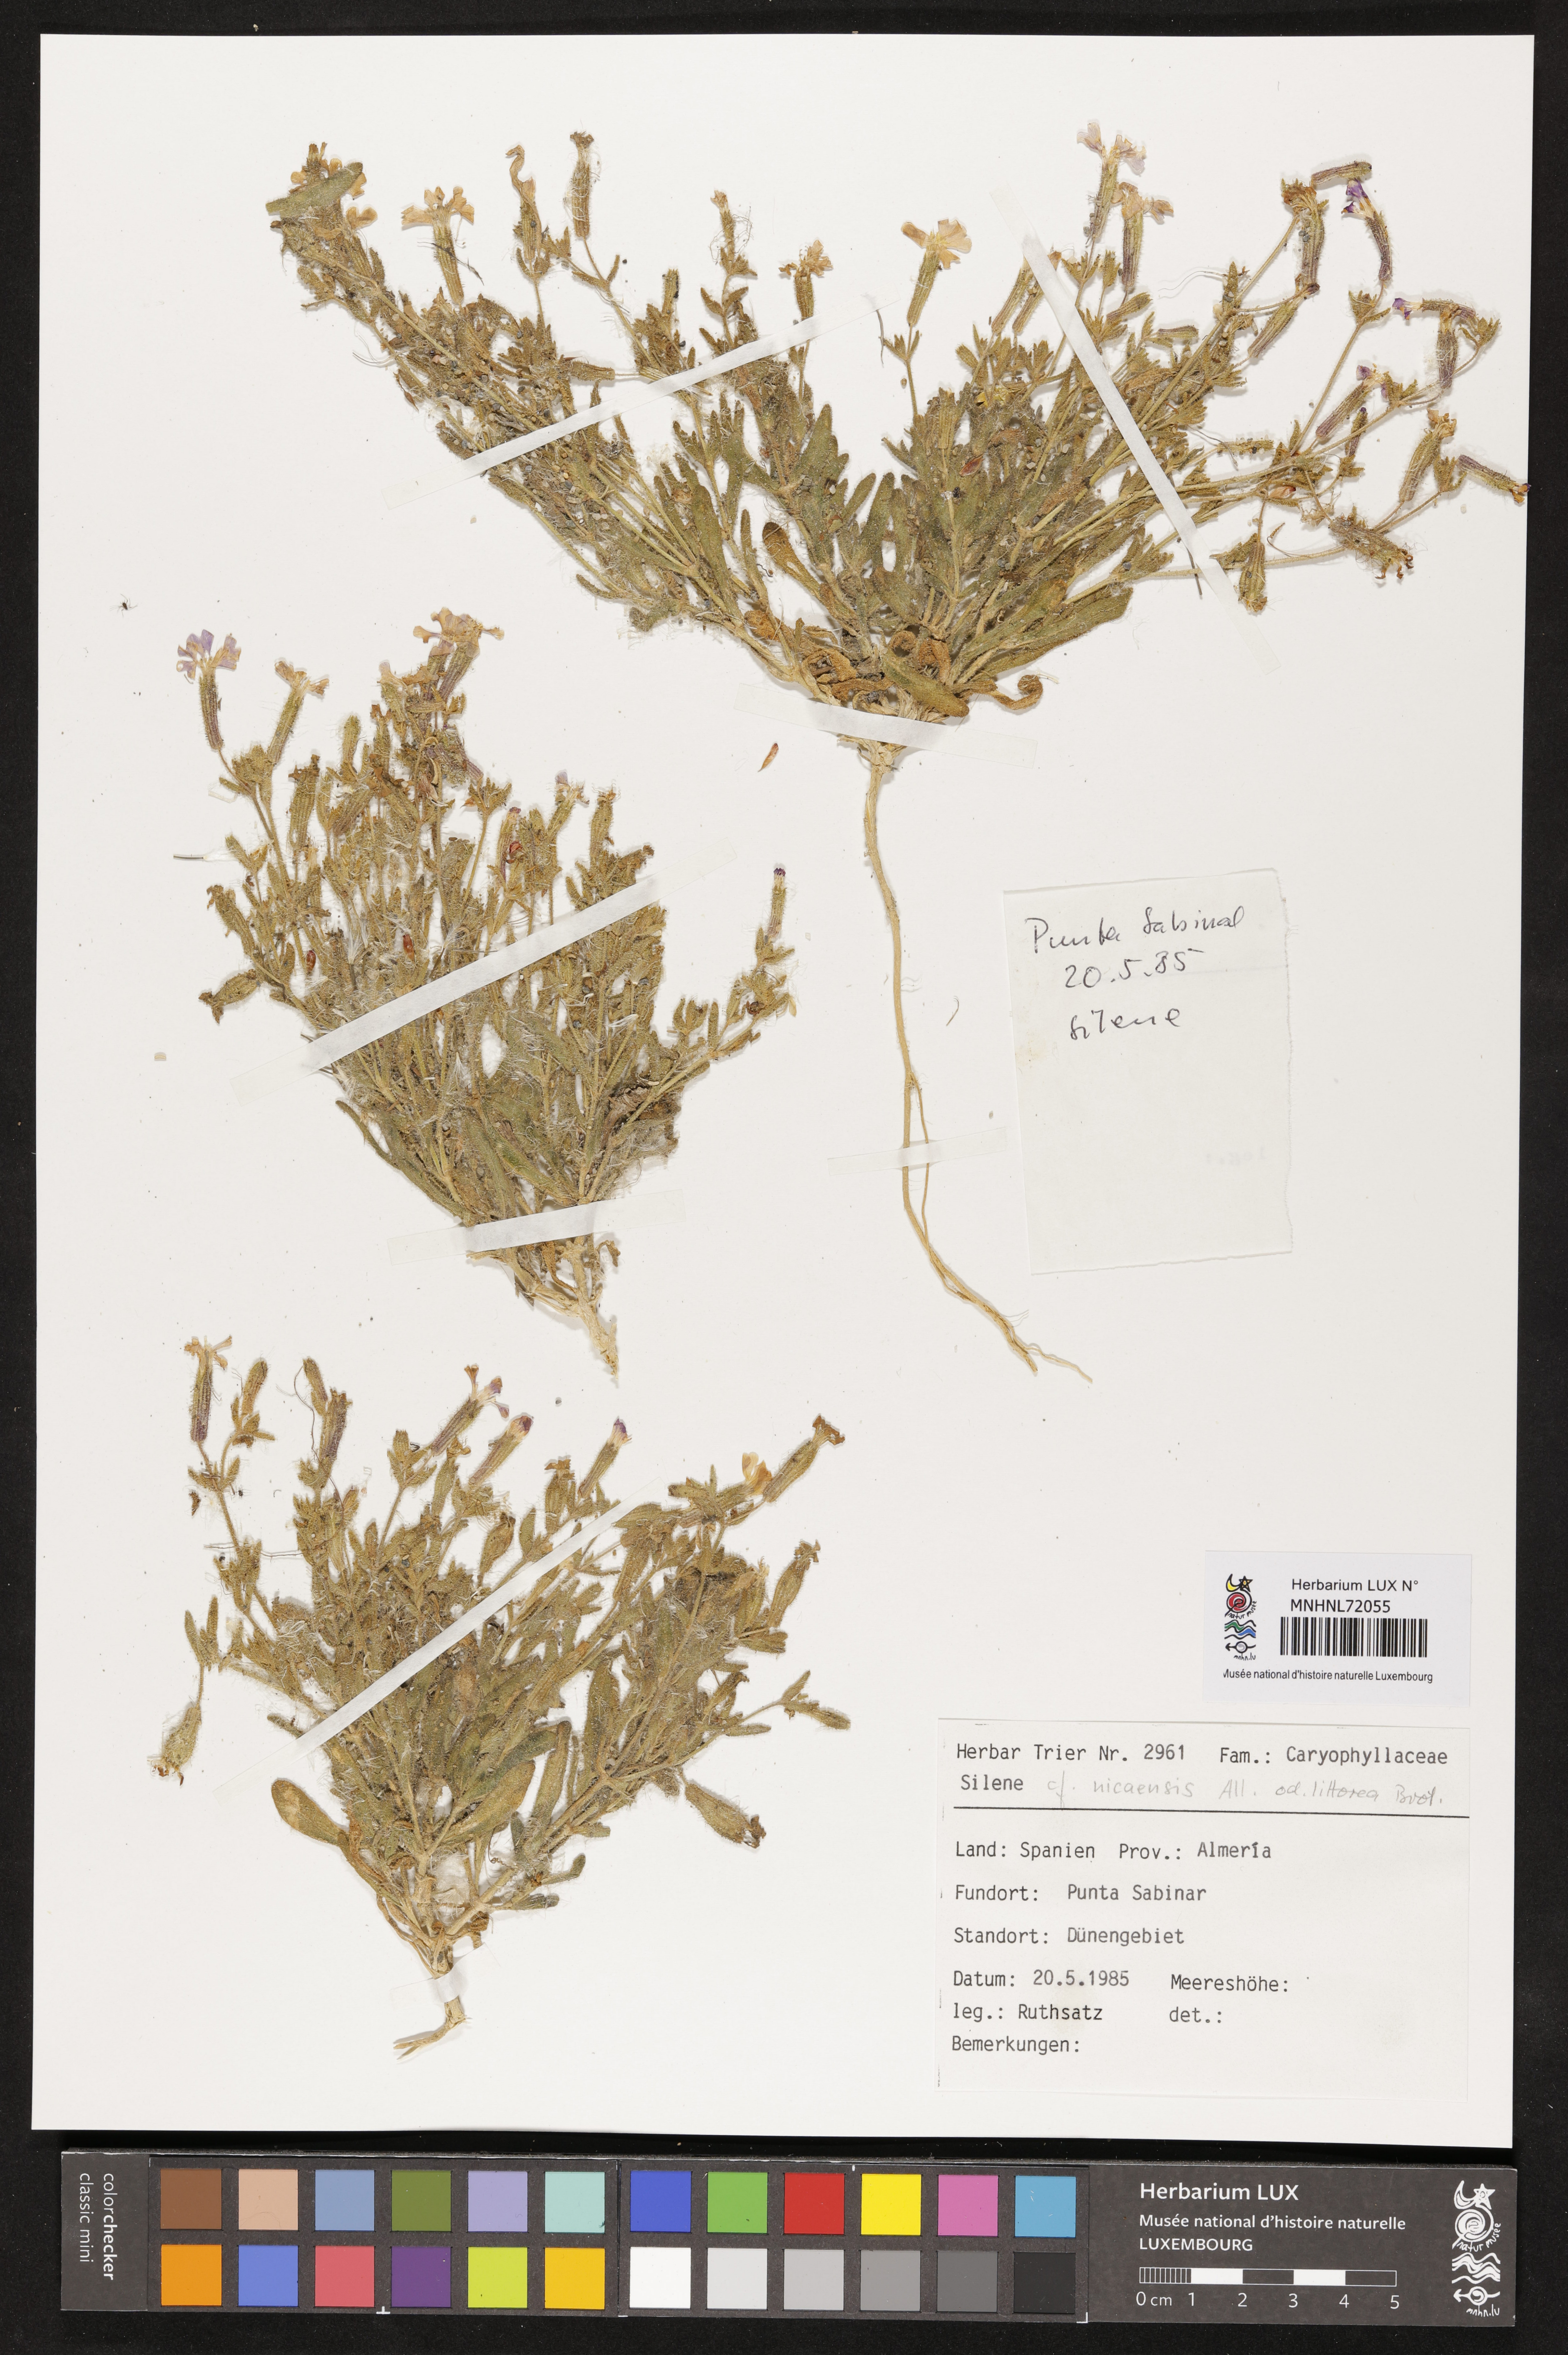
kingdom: Plantae
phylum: Tracheophyta
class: Magnoliopsida
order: Caryophyllales
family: Caryophyllaceae
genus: Silene
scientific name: Silene nicaeensis
